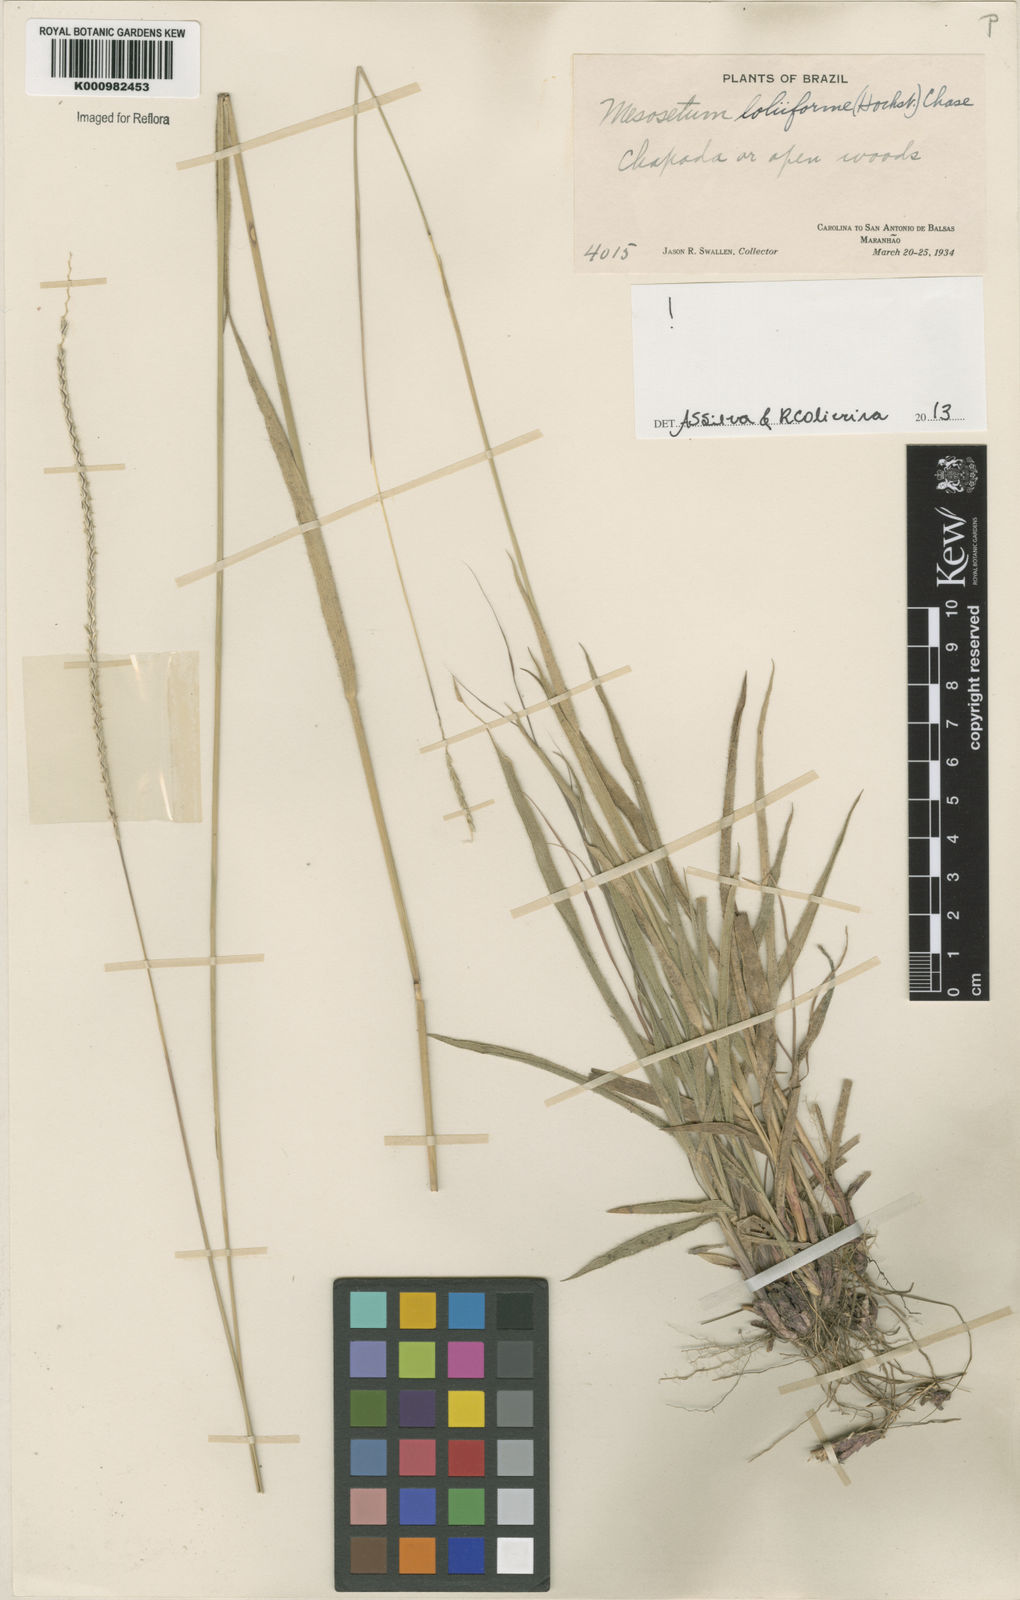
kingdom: Plantae
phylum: Tracheophyta
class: Liliopsida
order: Poales
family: Poaceae
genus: Mesosetum
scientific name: Mesosetum
